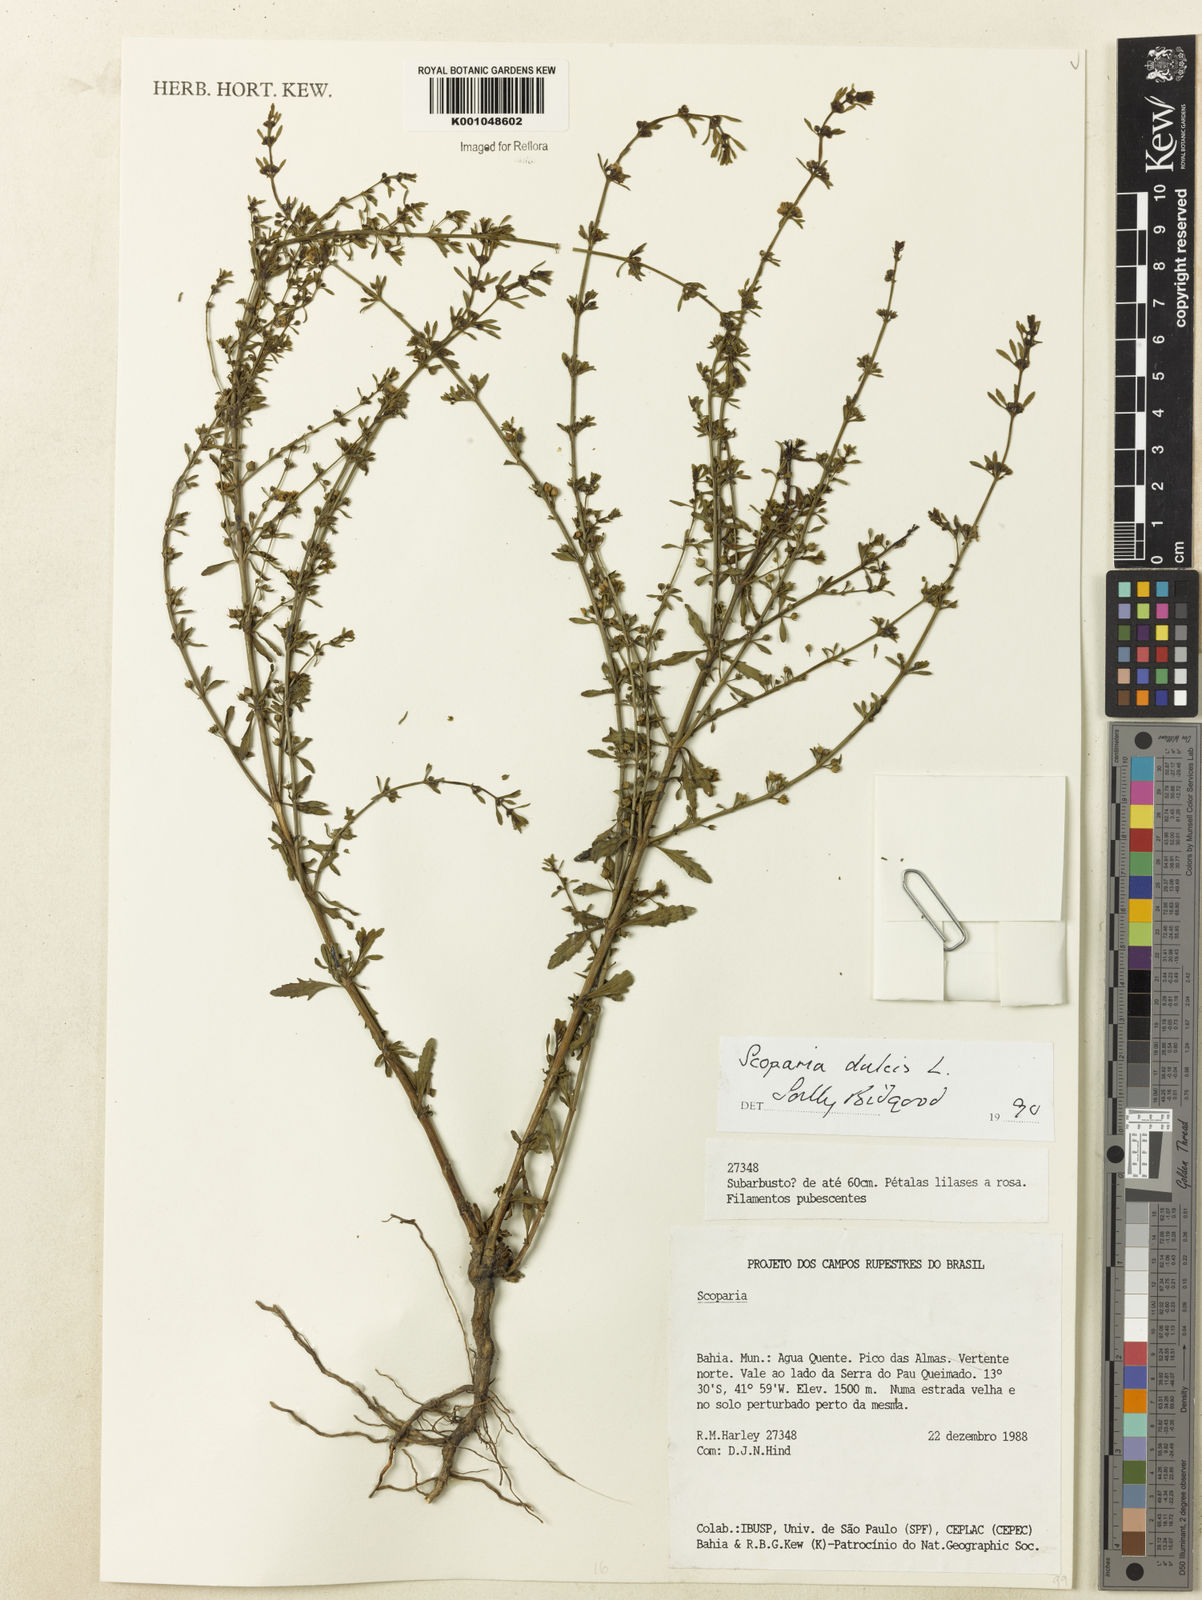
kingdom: Plantae
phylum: Tracheophyta
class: Magnoliopsida
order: Lamiales
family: Plantaginaceae
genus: Scoparia
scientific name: Scoparia dulcis
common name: Scoparia-weed
